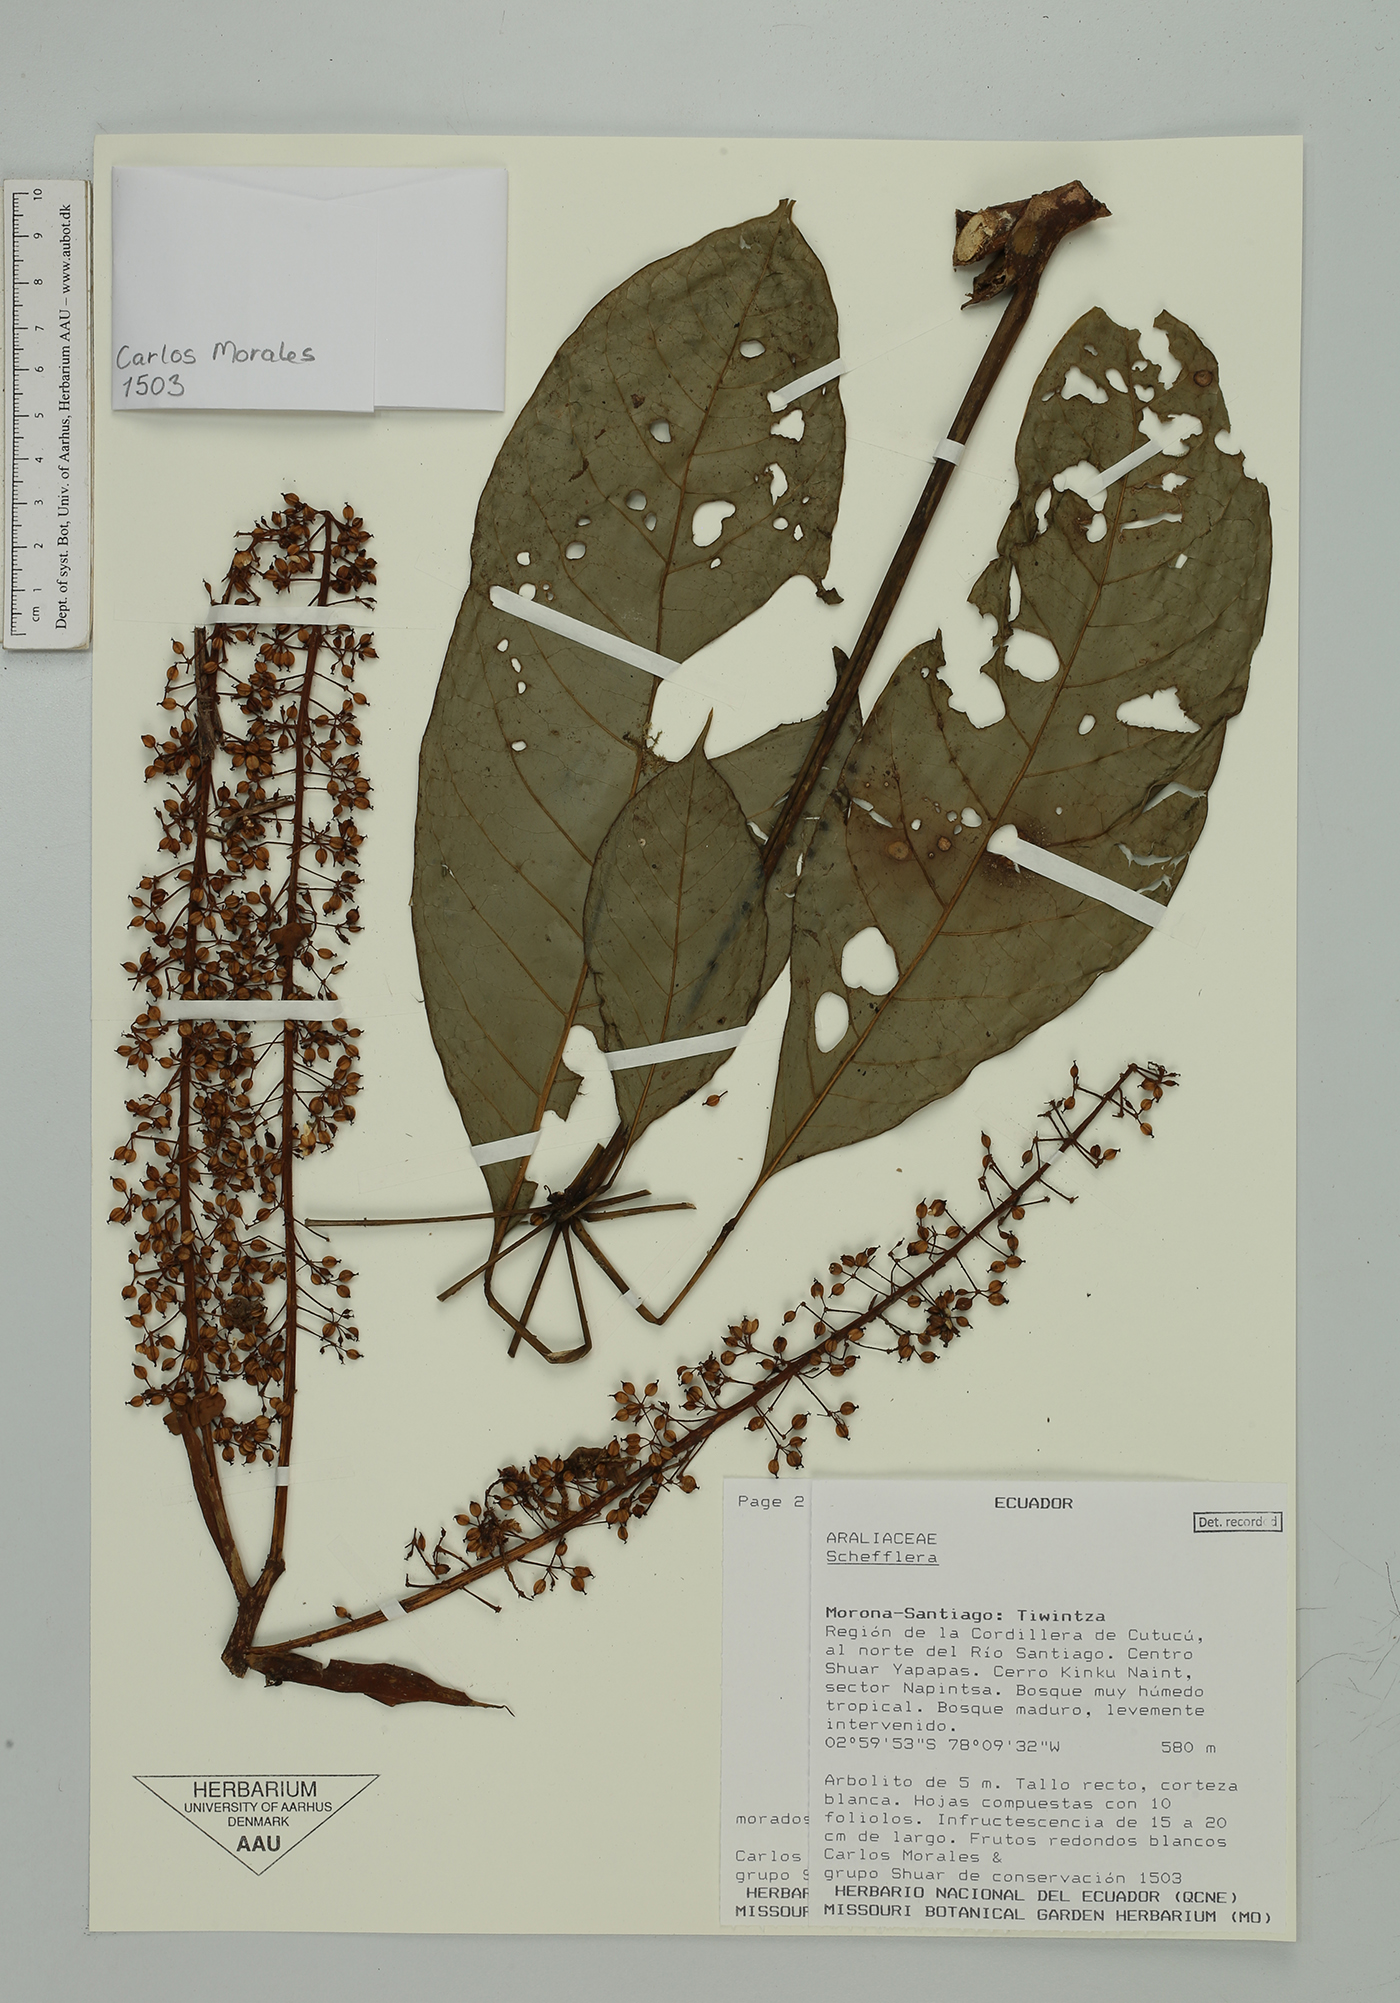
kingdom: Plantae
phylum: Tracheophyta
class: Magnoliopsida
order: Apiales
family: Araliaceae
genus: Sciodaphyllum
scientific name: Sciodaphyllum
